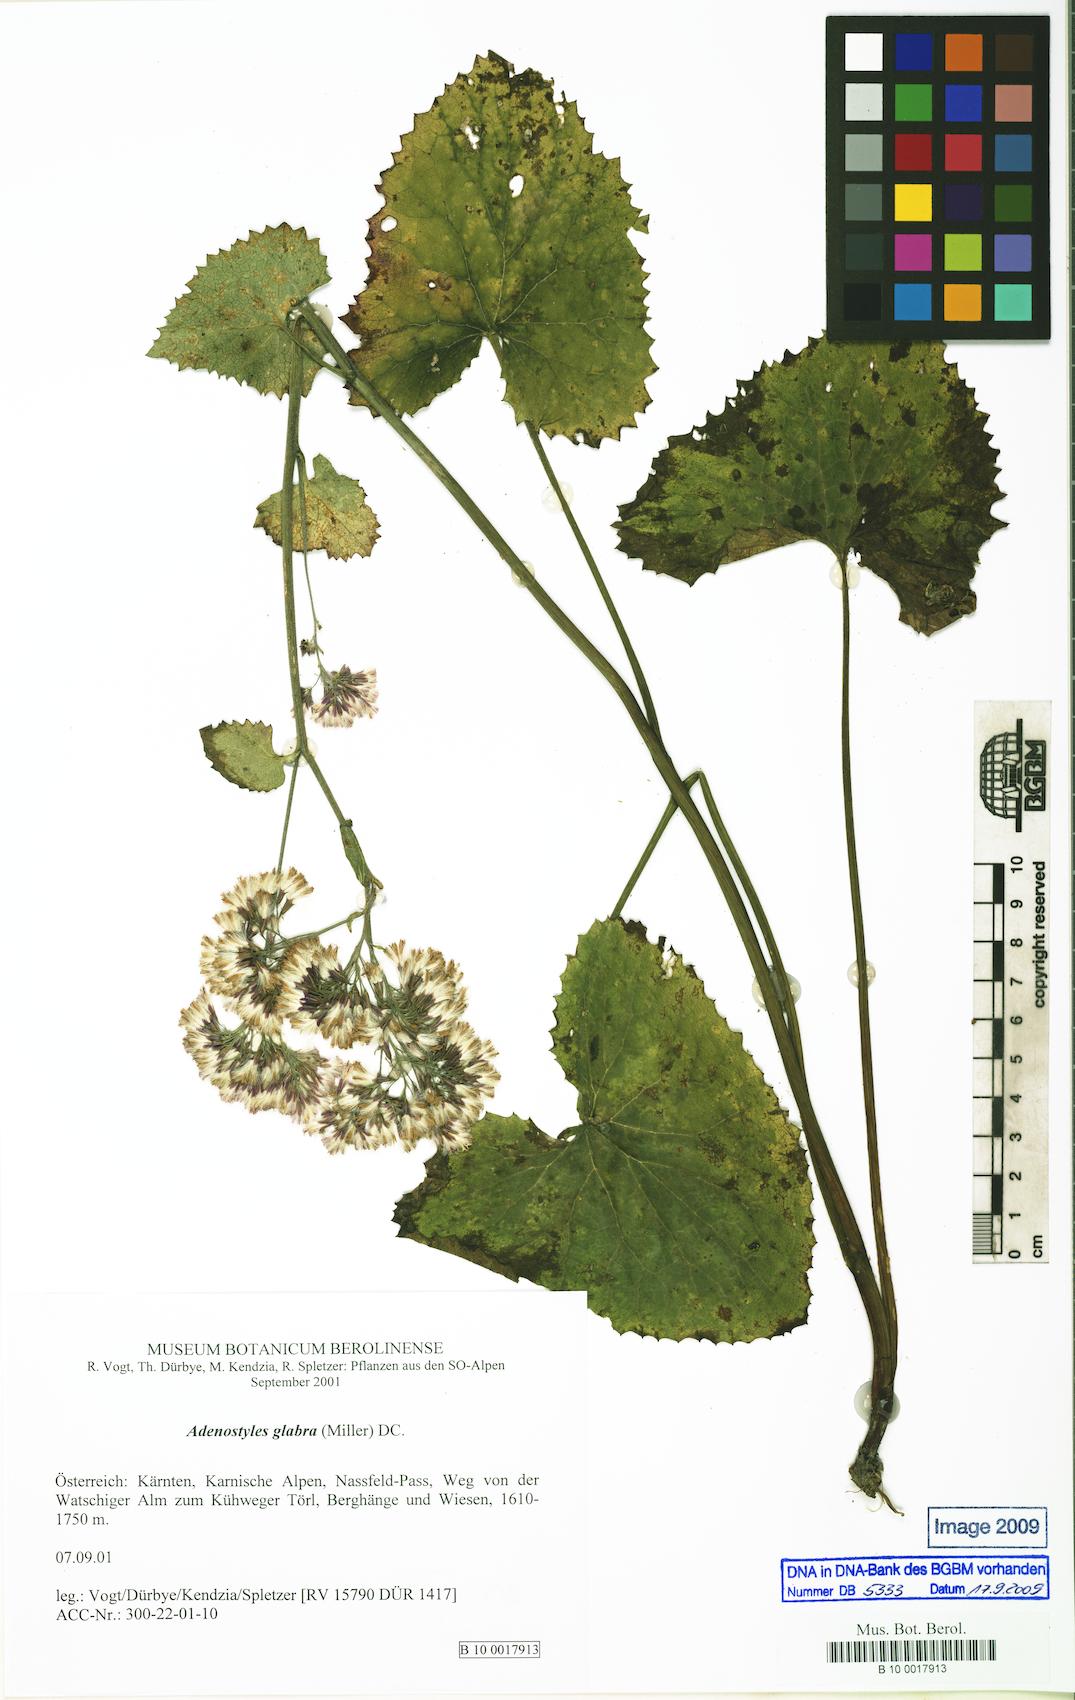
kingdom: Plantae
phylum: Tracheophyta
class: Magnoliopsida
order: Asterales
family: Asteraceae
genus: Adenostyles
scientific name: Adenostyles alpina
